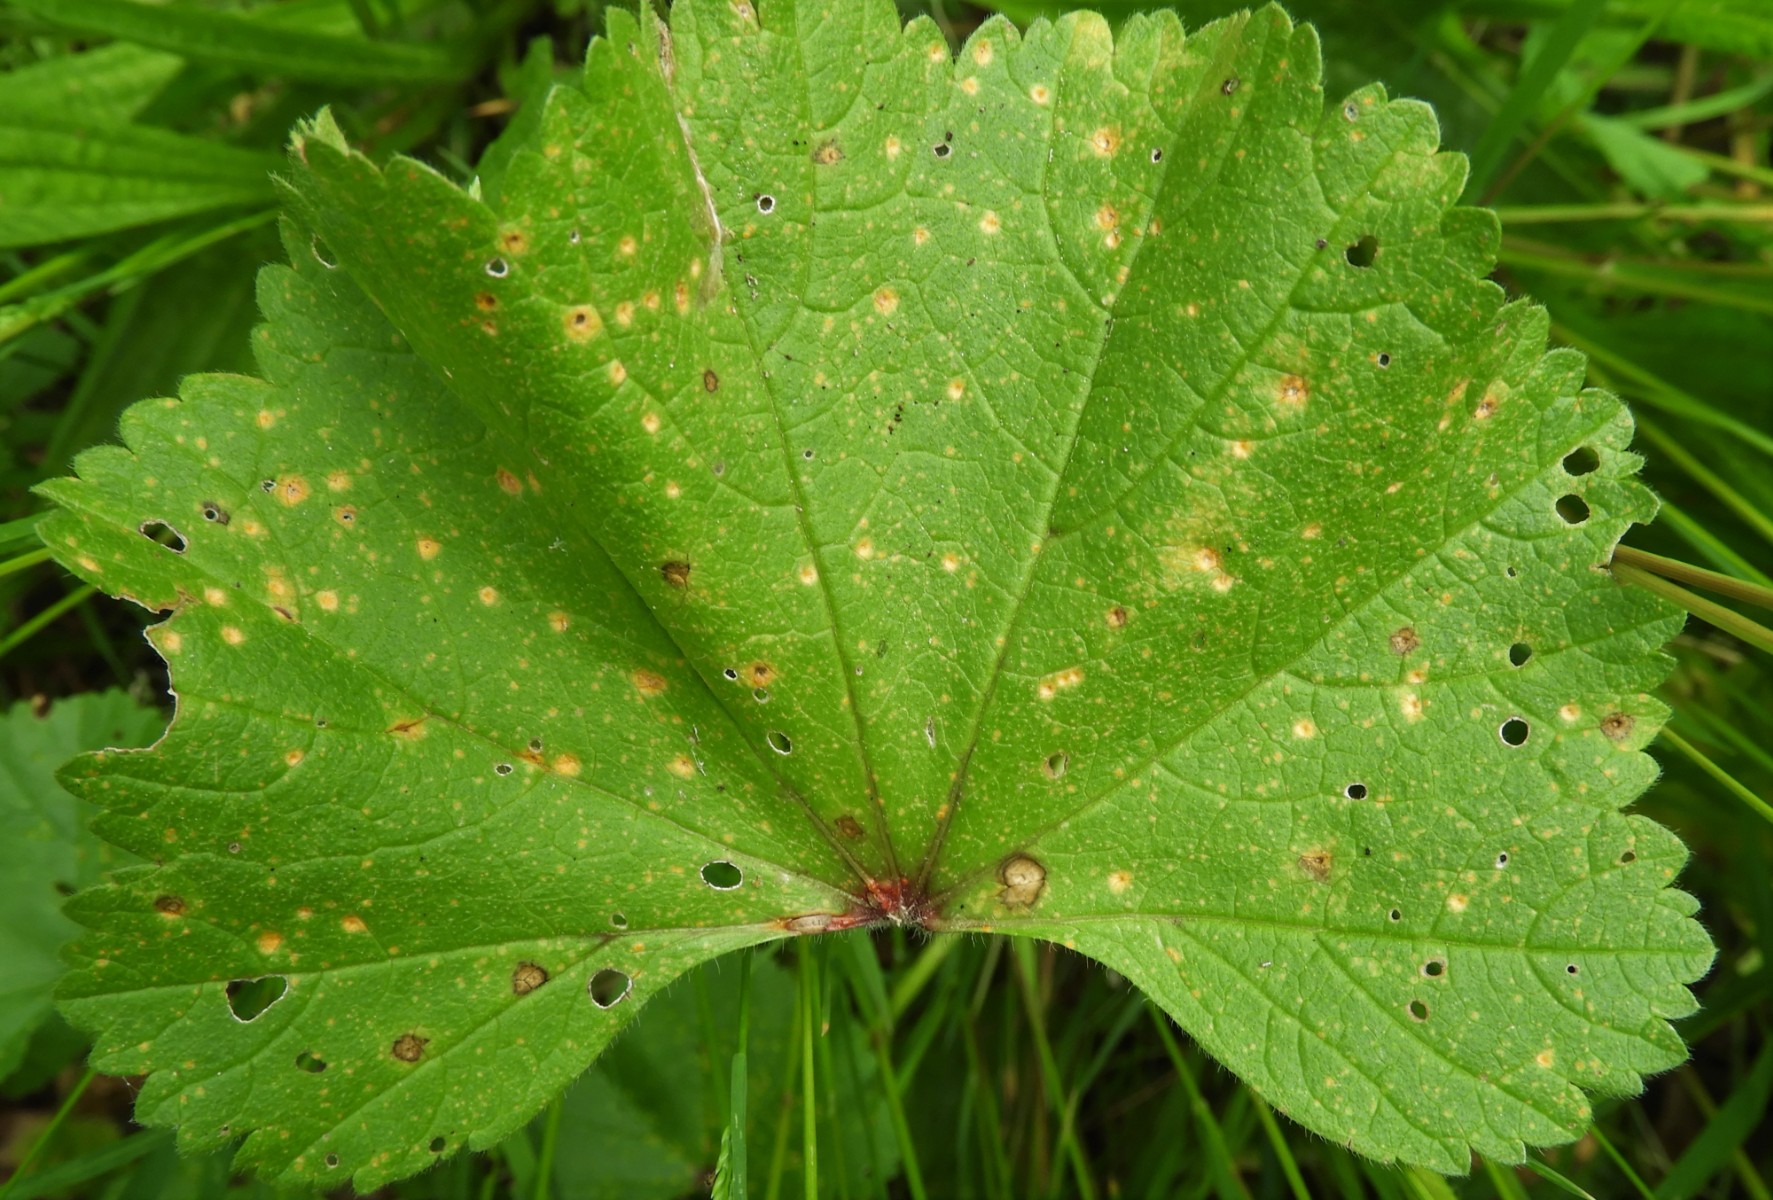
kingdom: Fungi
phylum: Basidiomycota
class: Pucciniomycetes
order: Pucciniales
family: Pucciniaceae
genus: Puccinia
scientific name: Puccinia malvacearum
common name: stokrose-tvecellerust
